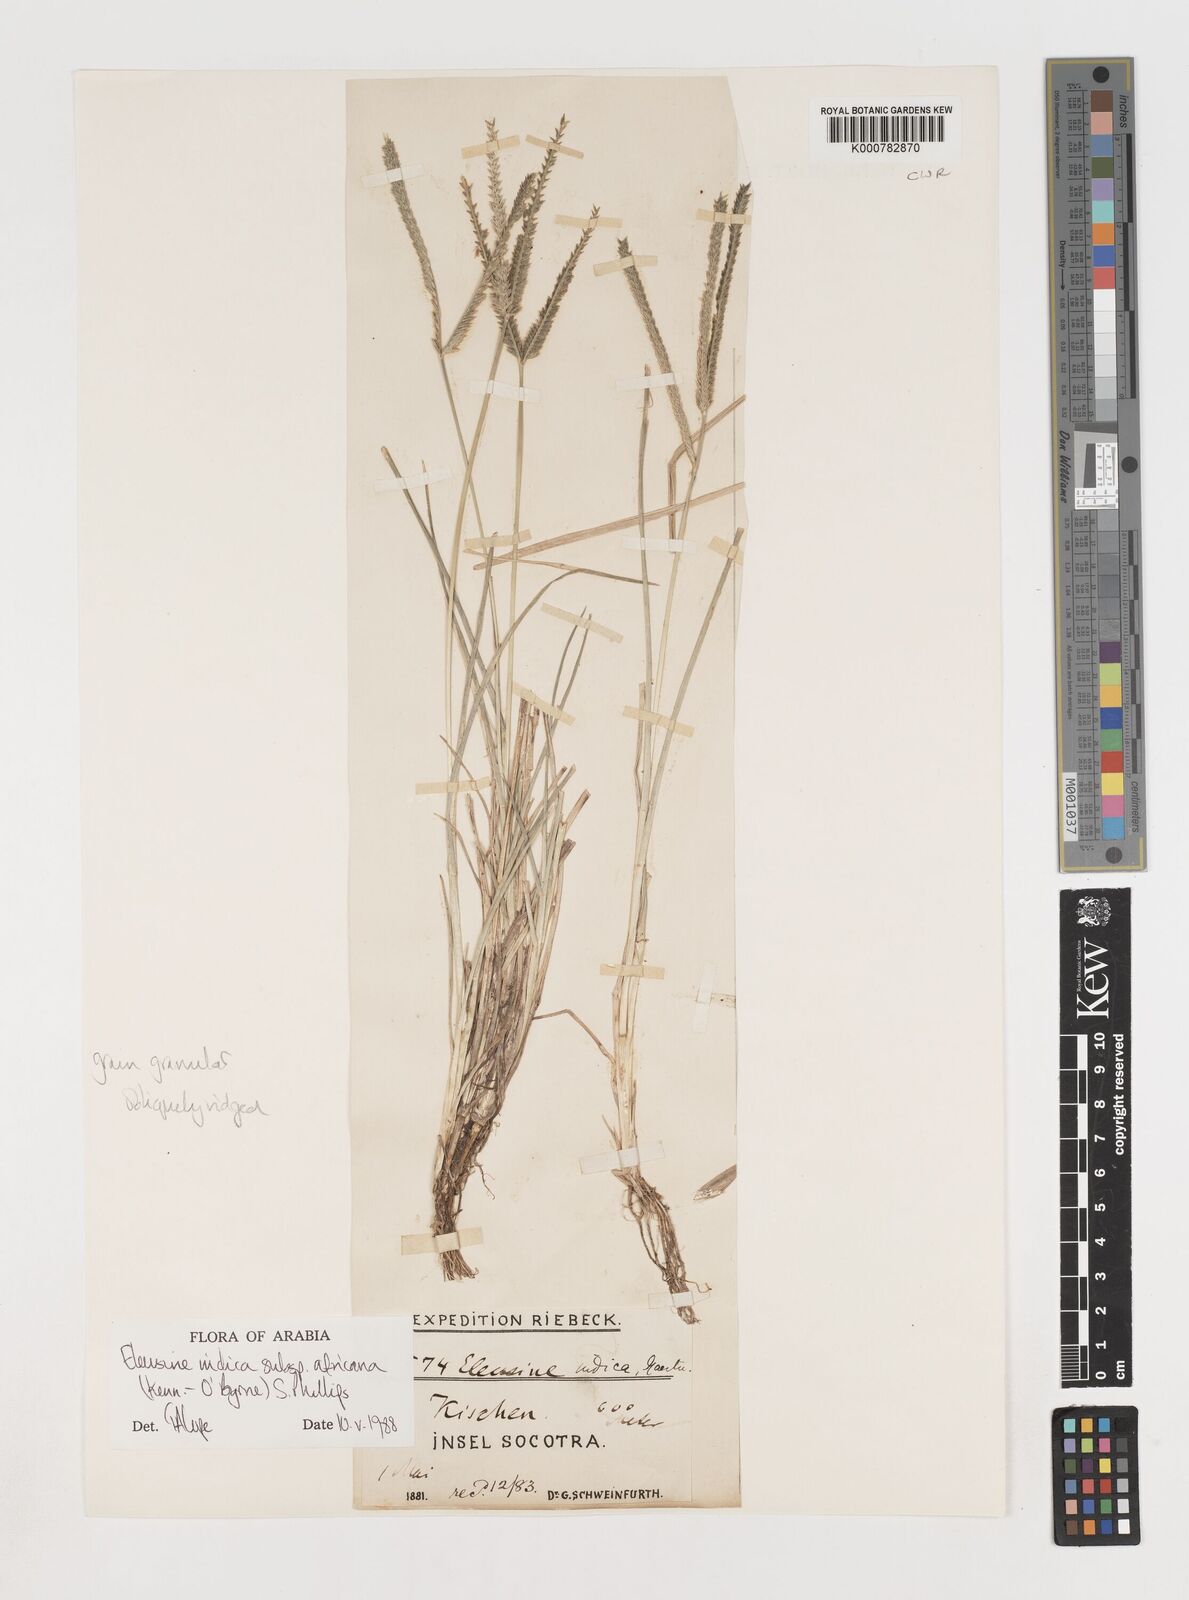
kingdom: Plantae
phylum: Tracheophyta
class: Liliopsida
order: Poales
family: Poaceae
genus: Eleusine
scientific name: Eleusine africana
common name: Wild african finger millet
